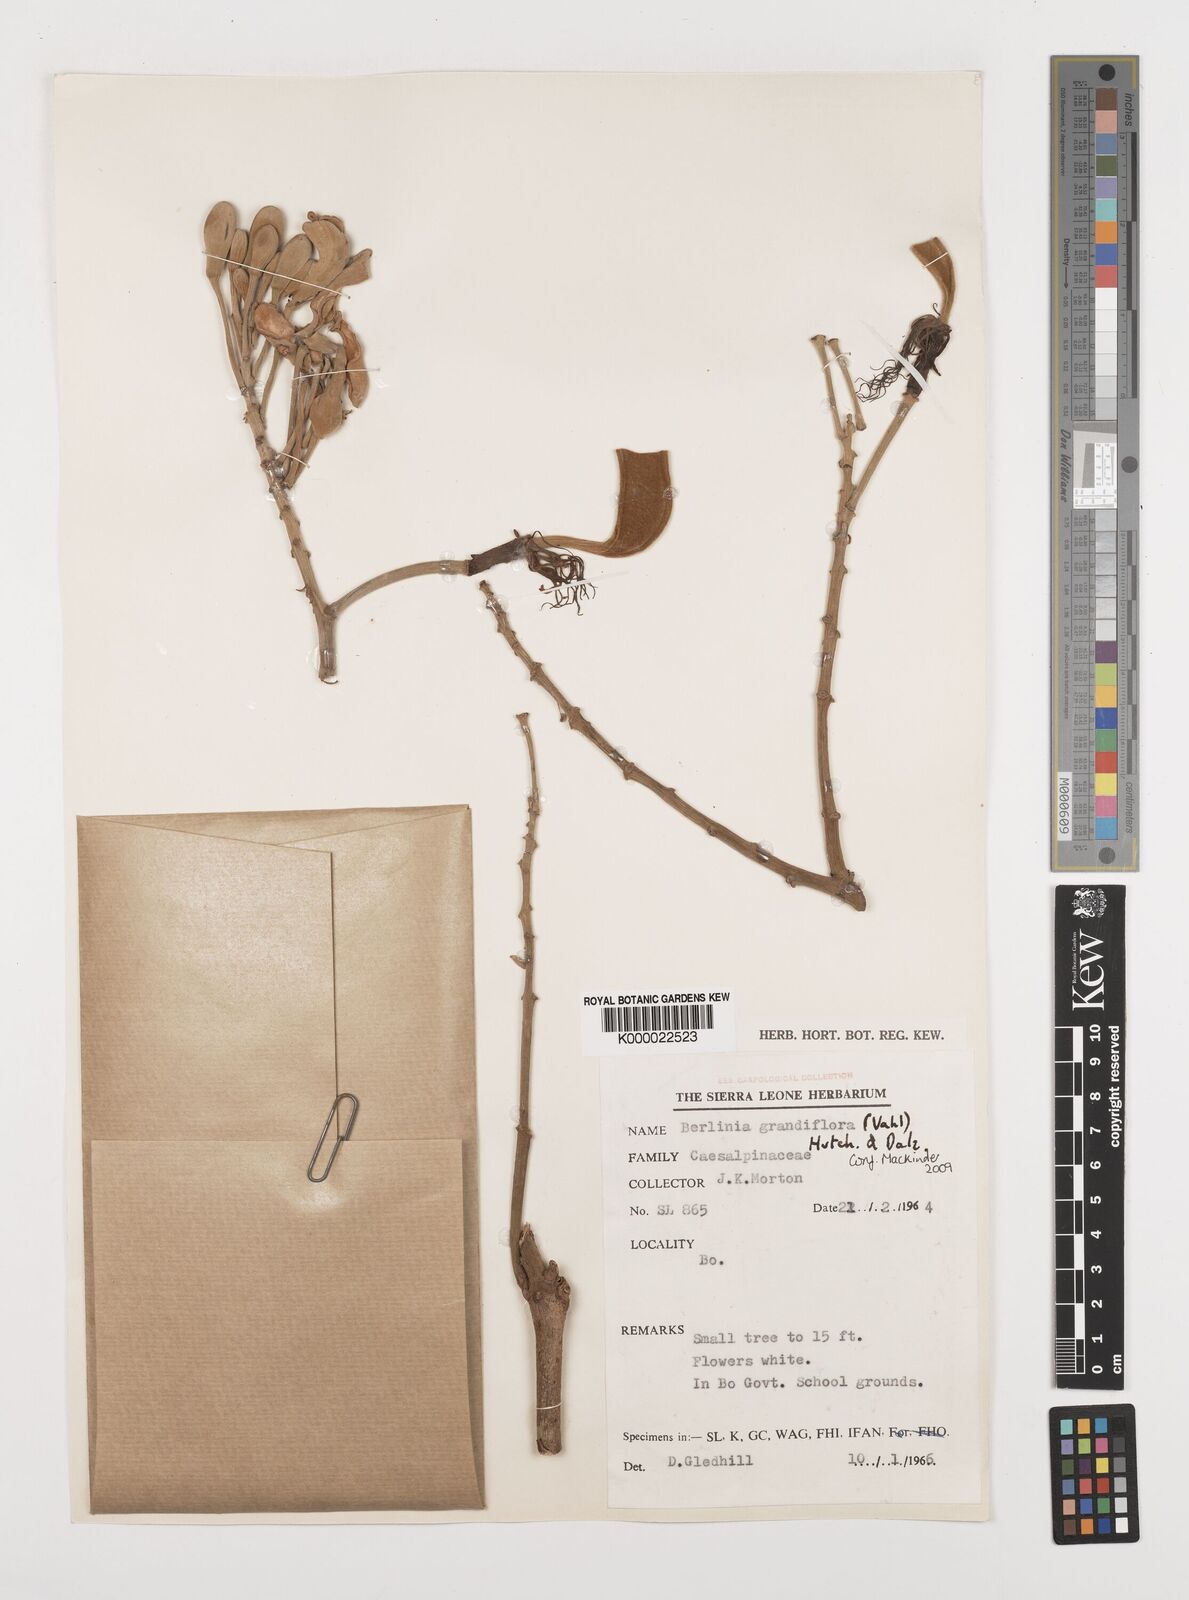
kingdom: Plantae
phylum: Tracheophyta
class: Magnoliopsida
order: Fabales
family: Fabaceae
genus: Berlinia
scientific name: Berlinia grandiflora
